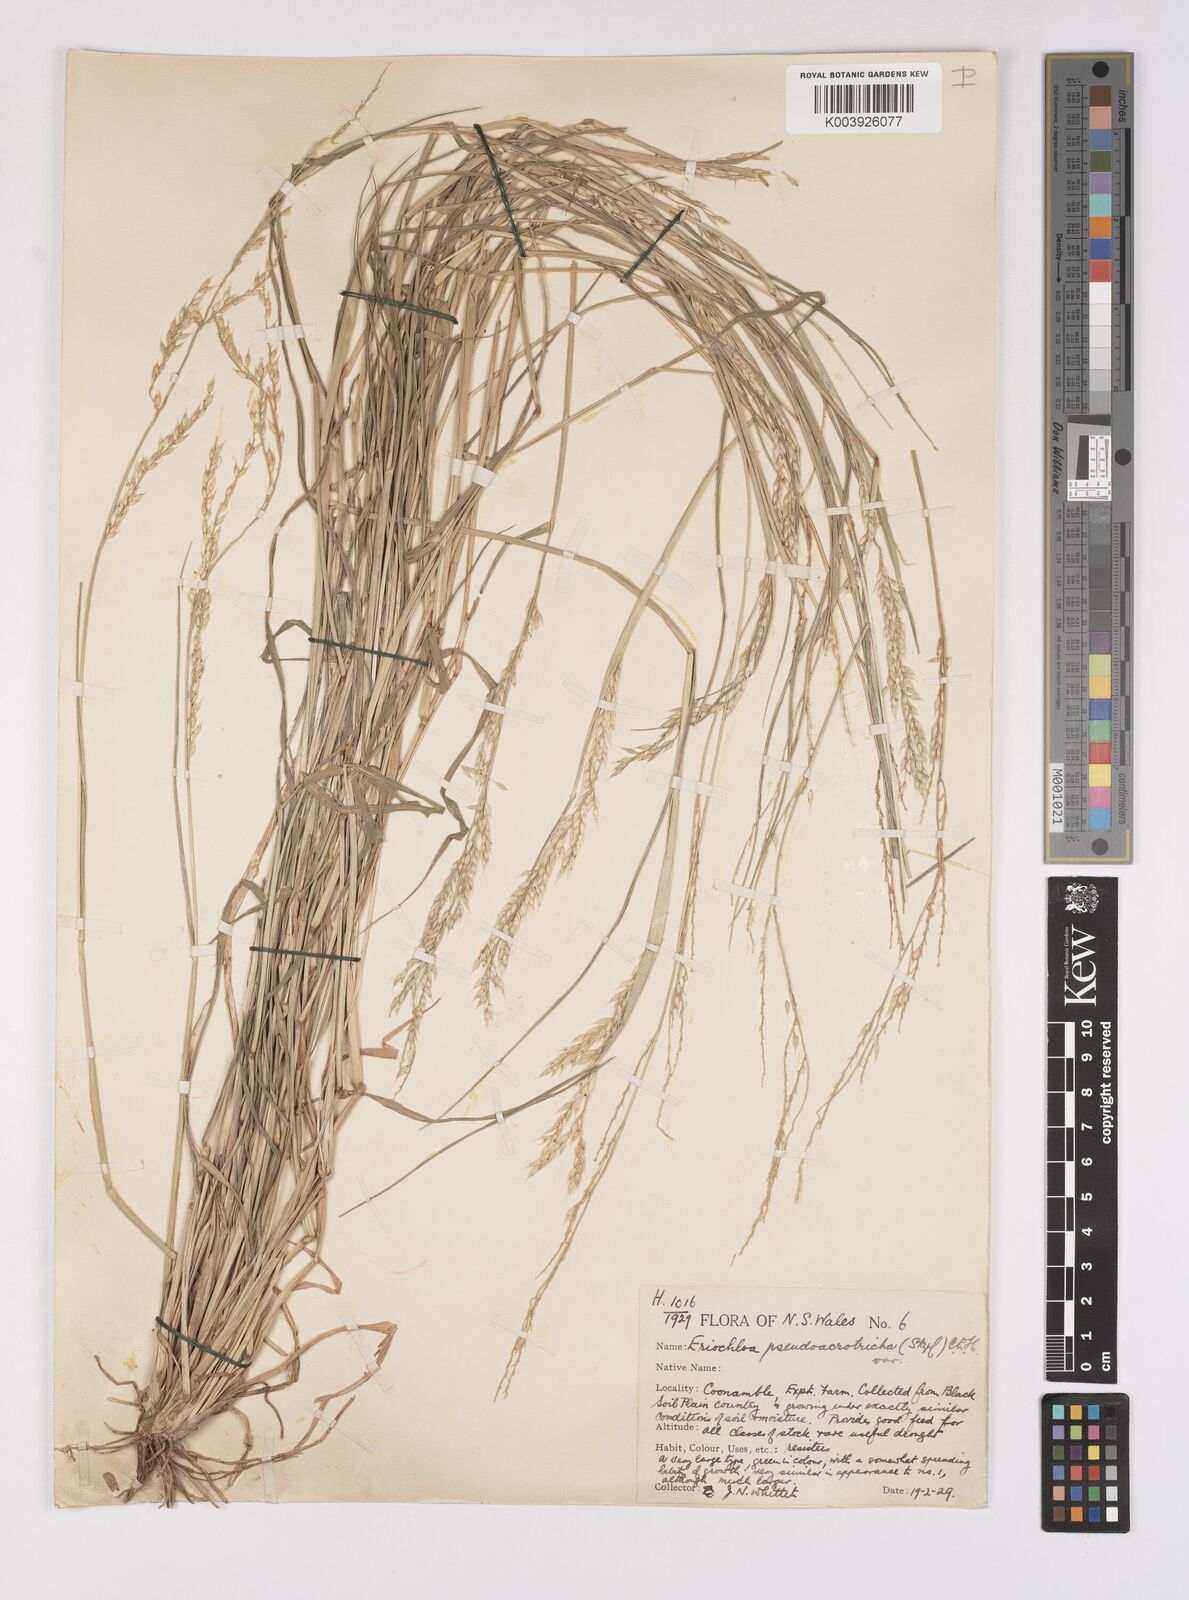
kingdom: Plantae
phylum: Tracheophyta
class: Liliopsida
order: Poales
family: Poaceae
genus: Eriochloa
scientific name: Eriochloa pseudoacrotricha
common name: Perennial cup-grass
